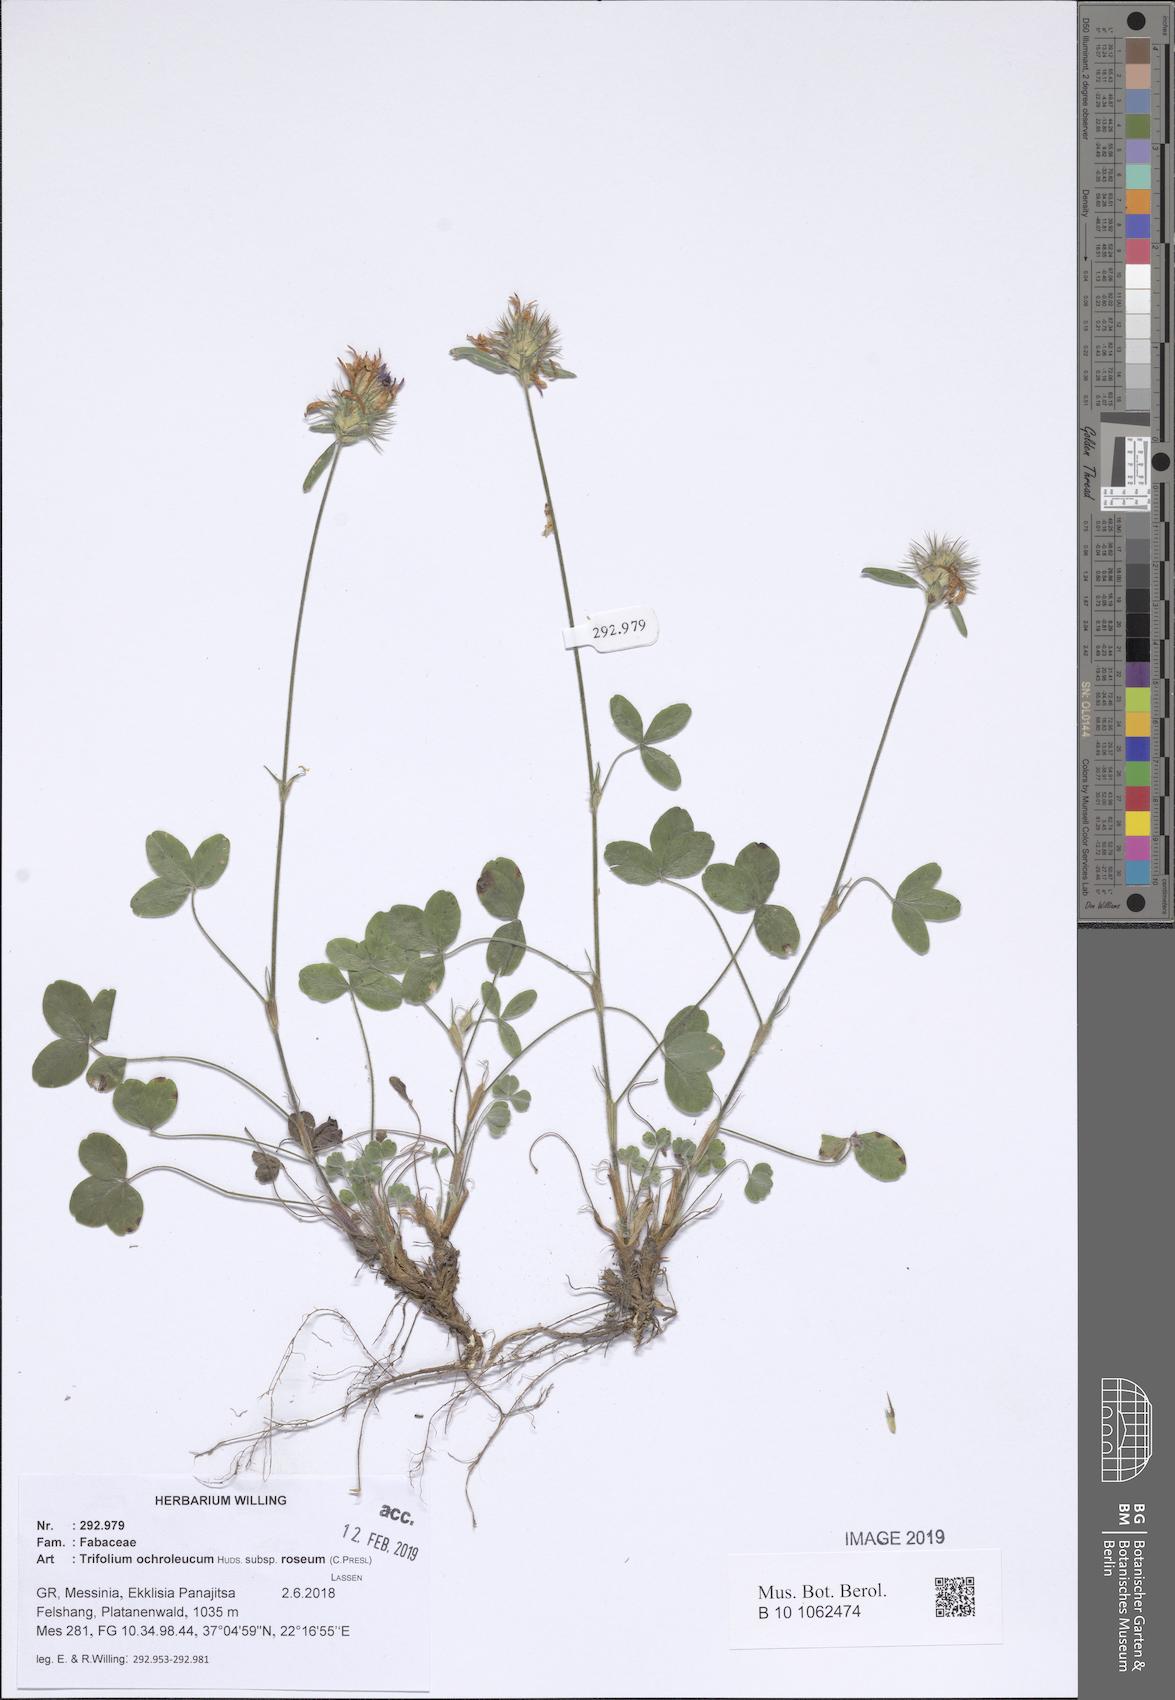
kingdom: Plantae
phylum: Tracheophyta
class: Magnoliopsida
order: Fabales
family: Fabaceae
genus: Trifolium
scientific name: Trifolium ochroleucon
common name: Sulphur clover
